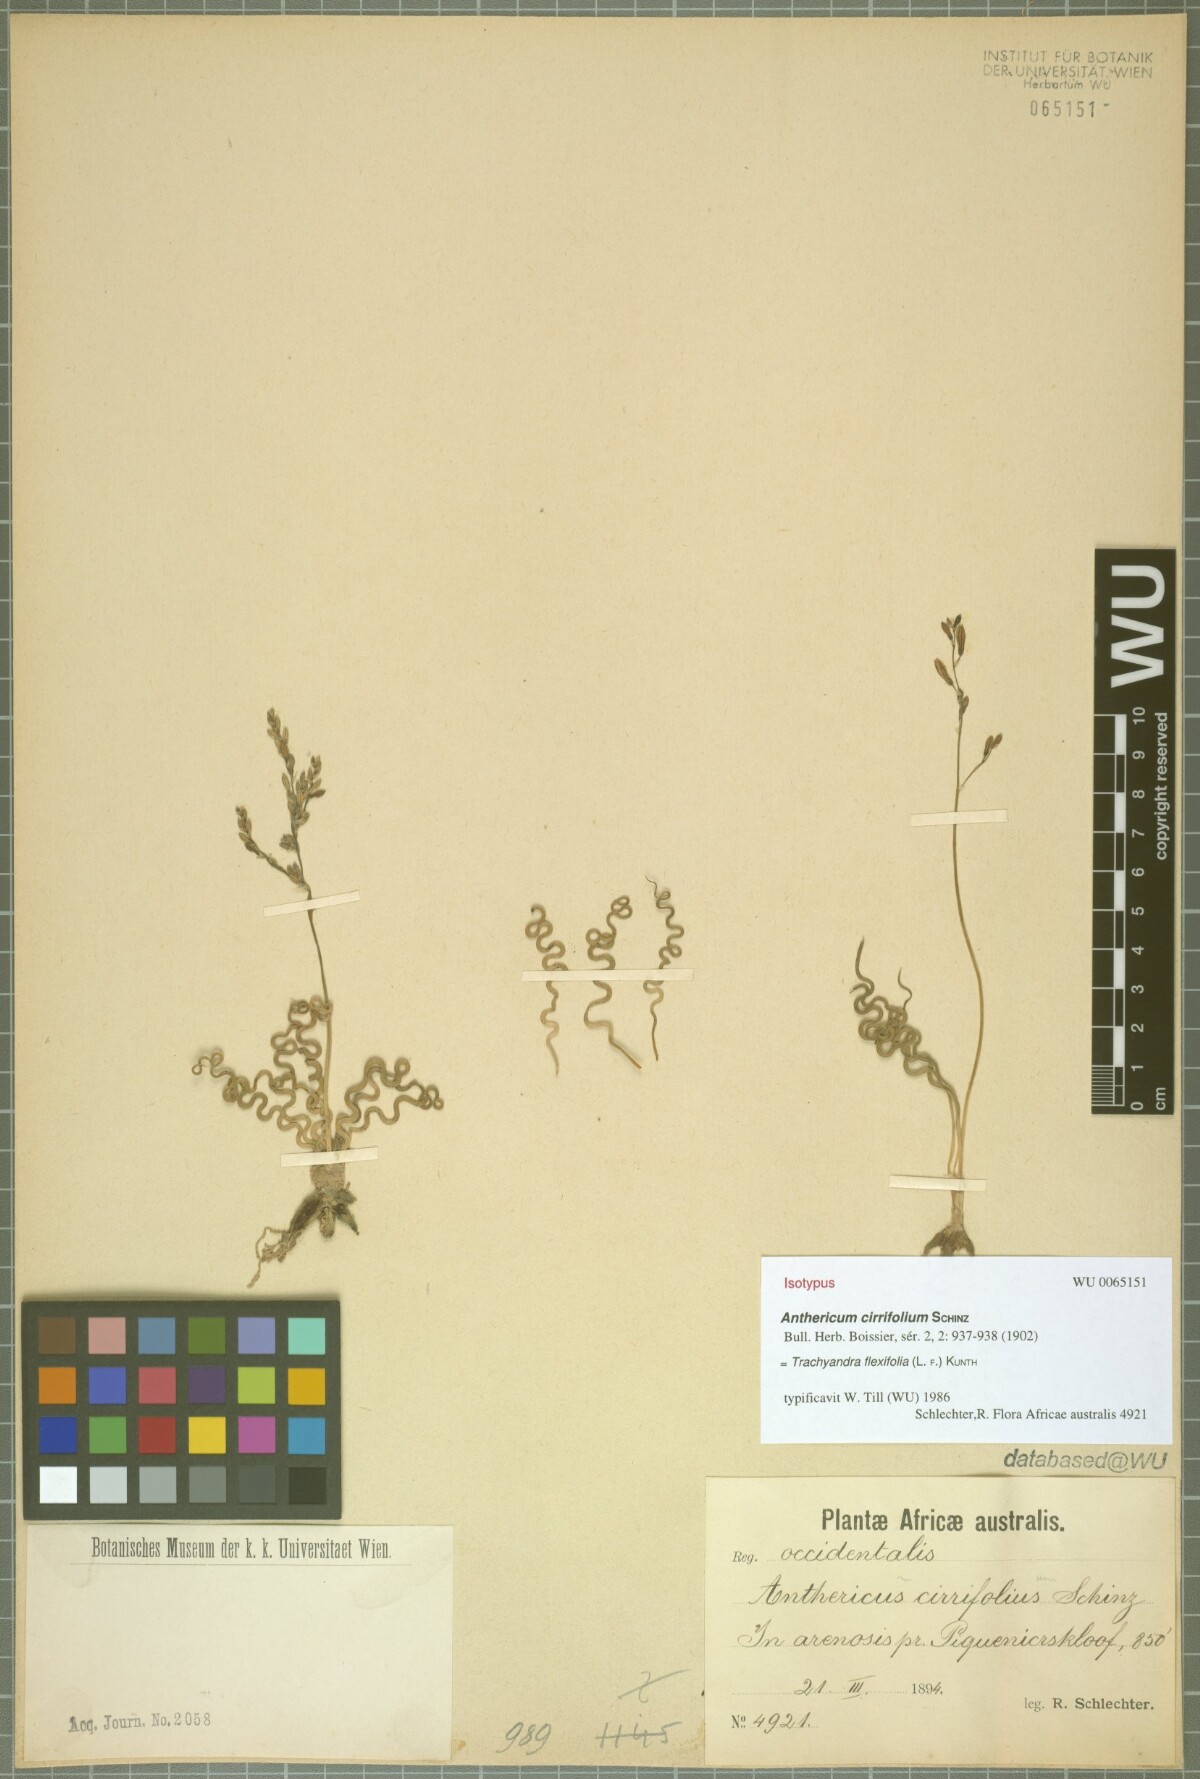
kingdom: Plantae
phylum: Tracheophyta
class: Liliopsida
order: Asparagales
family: Asphodelaceae
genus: Trachyandra
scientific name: Trachyandra flexifolia
